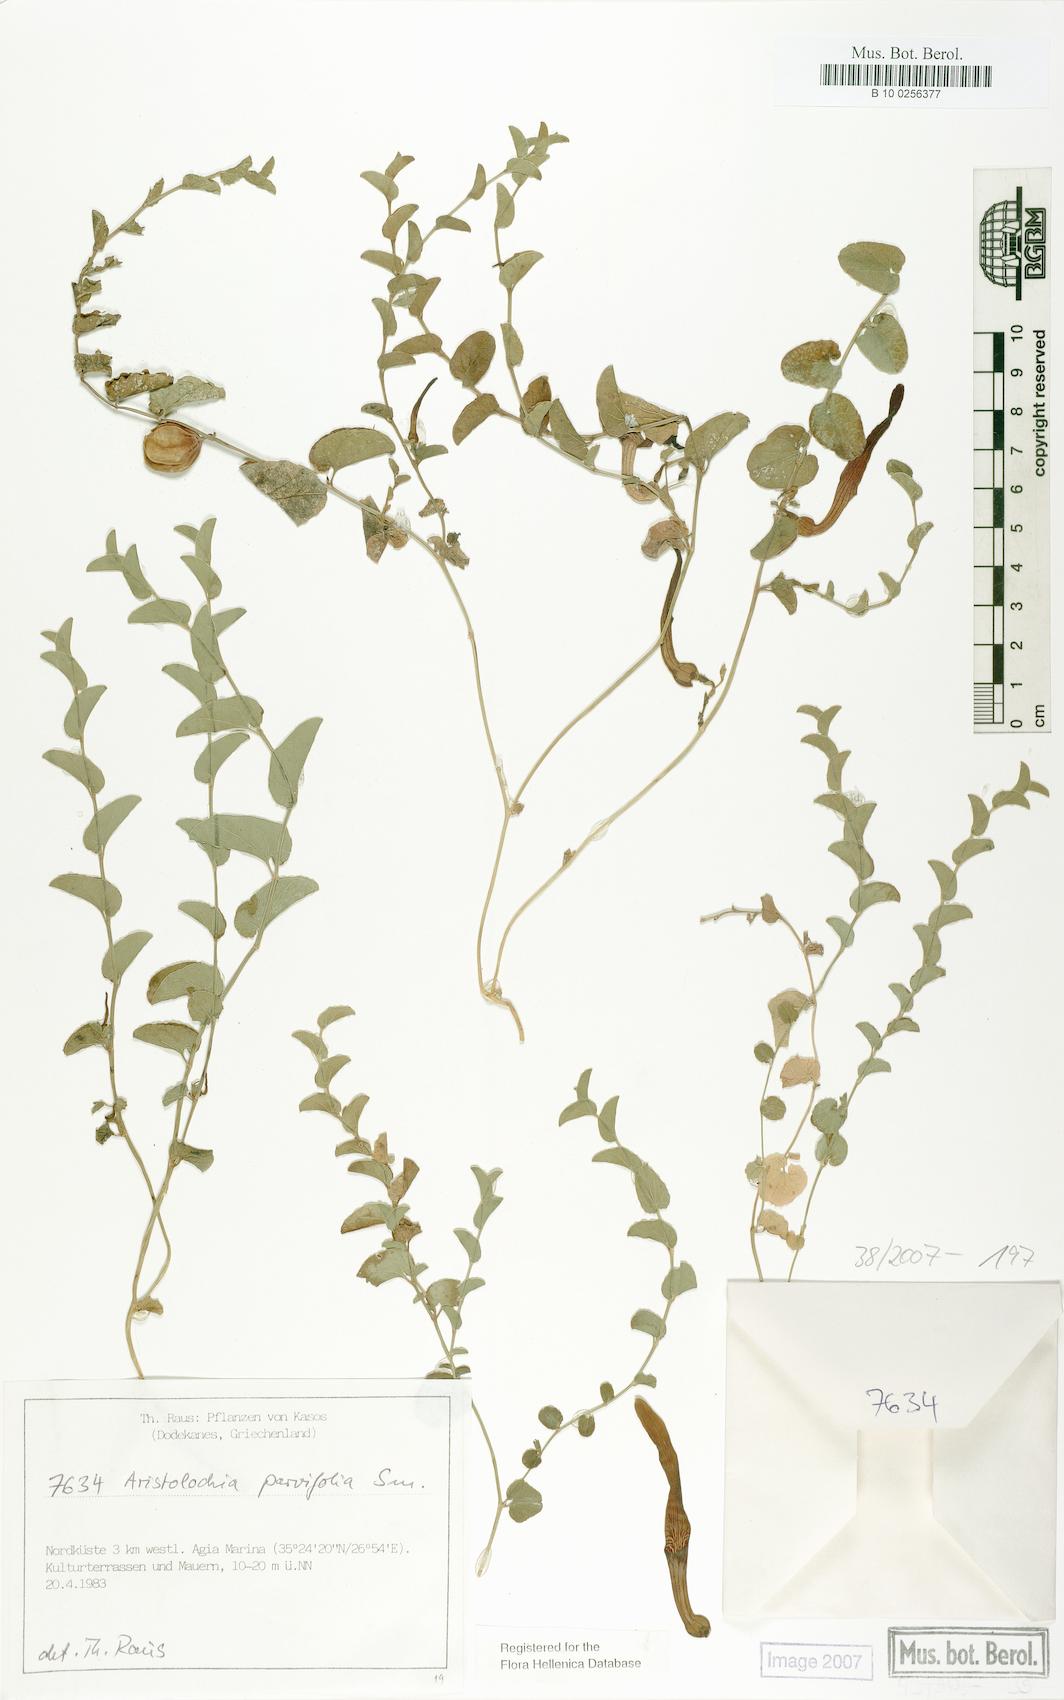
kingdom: Plantae
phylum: Tracheophyta
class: Magnoliopsida
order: Piperales
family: Aristolochiaceae
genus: Aristolochia
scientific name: Aristolochia parvifolia
